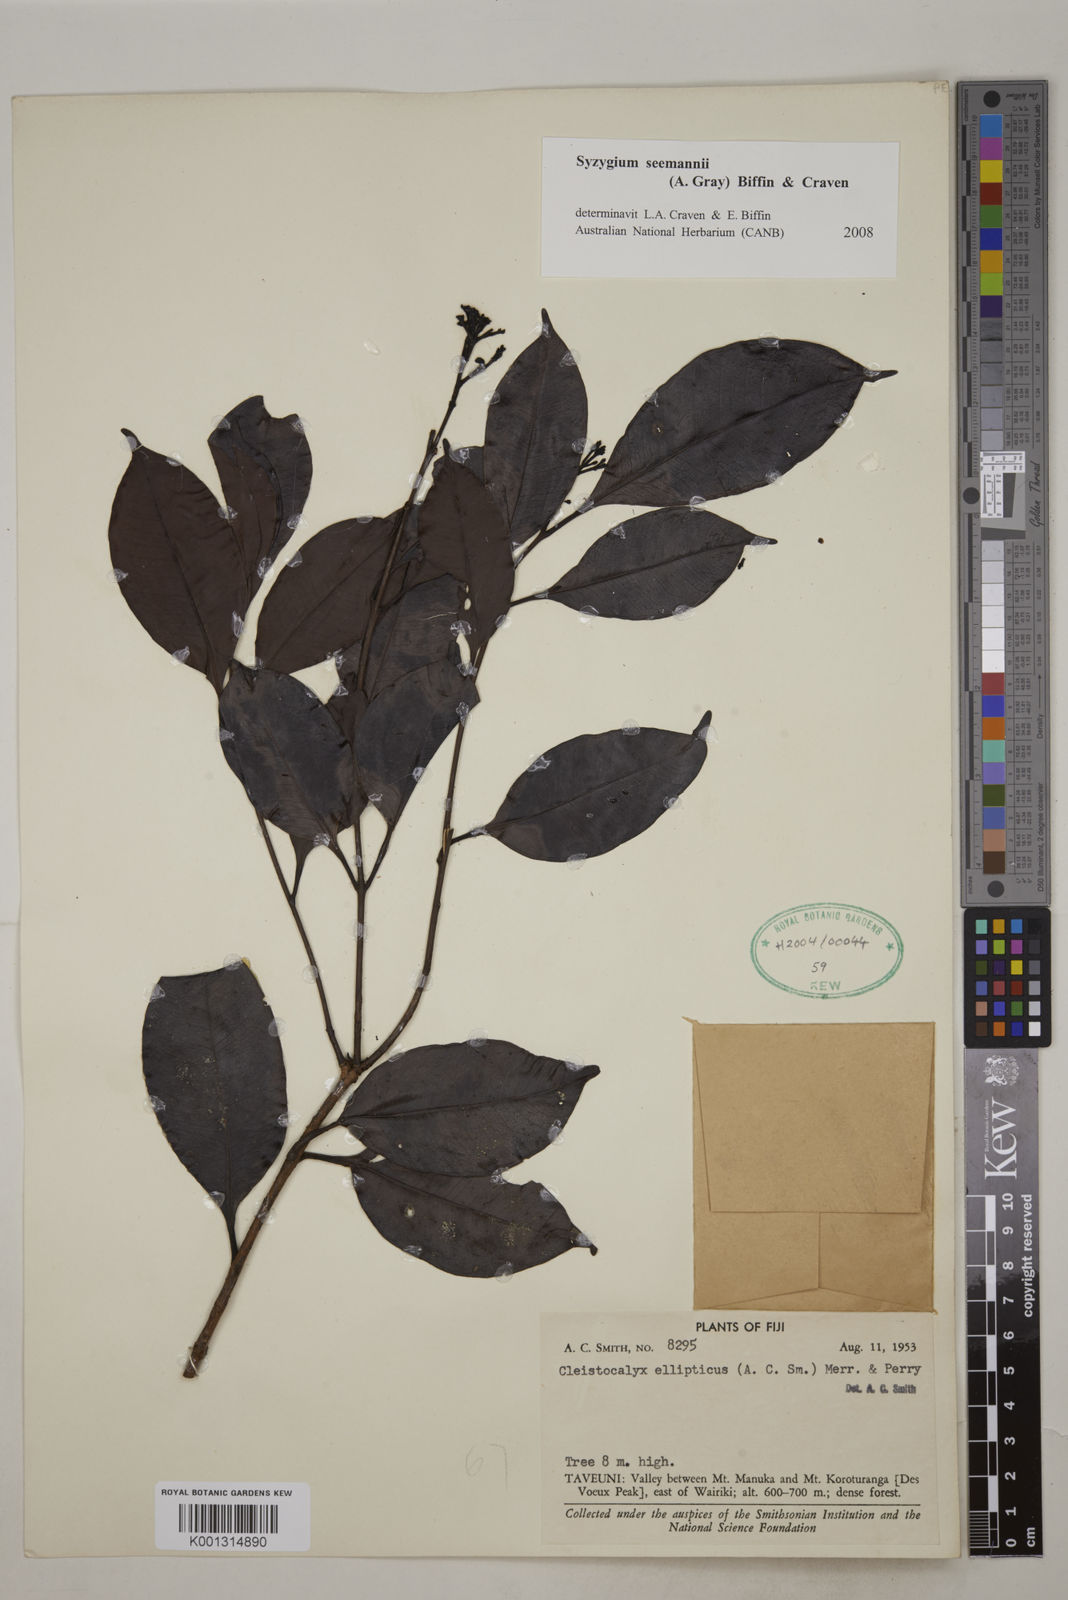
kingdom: Plantae
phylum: Tracheophyta
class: Magnoliopsida
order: Myrtales
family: Myrtaceae
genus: Syzygium
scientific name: Syzygium seemannii
